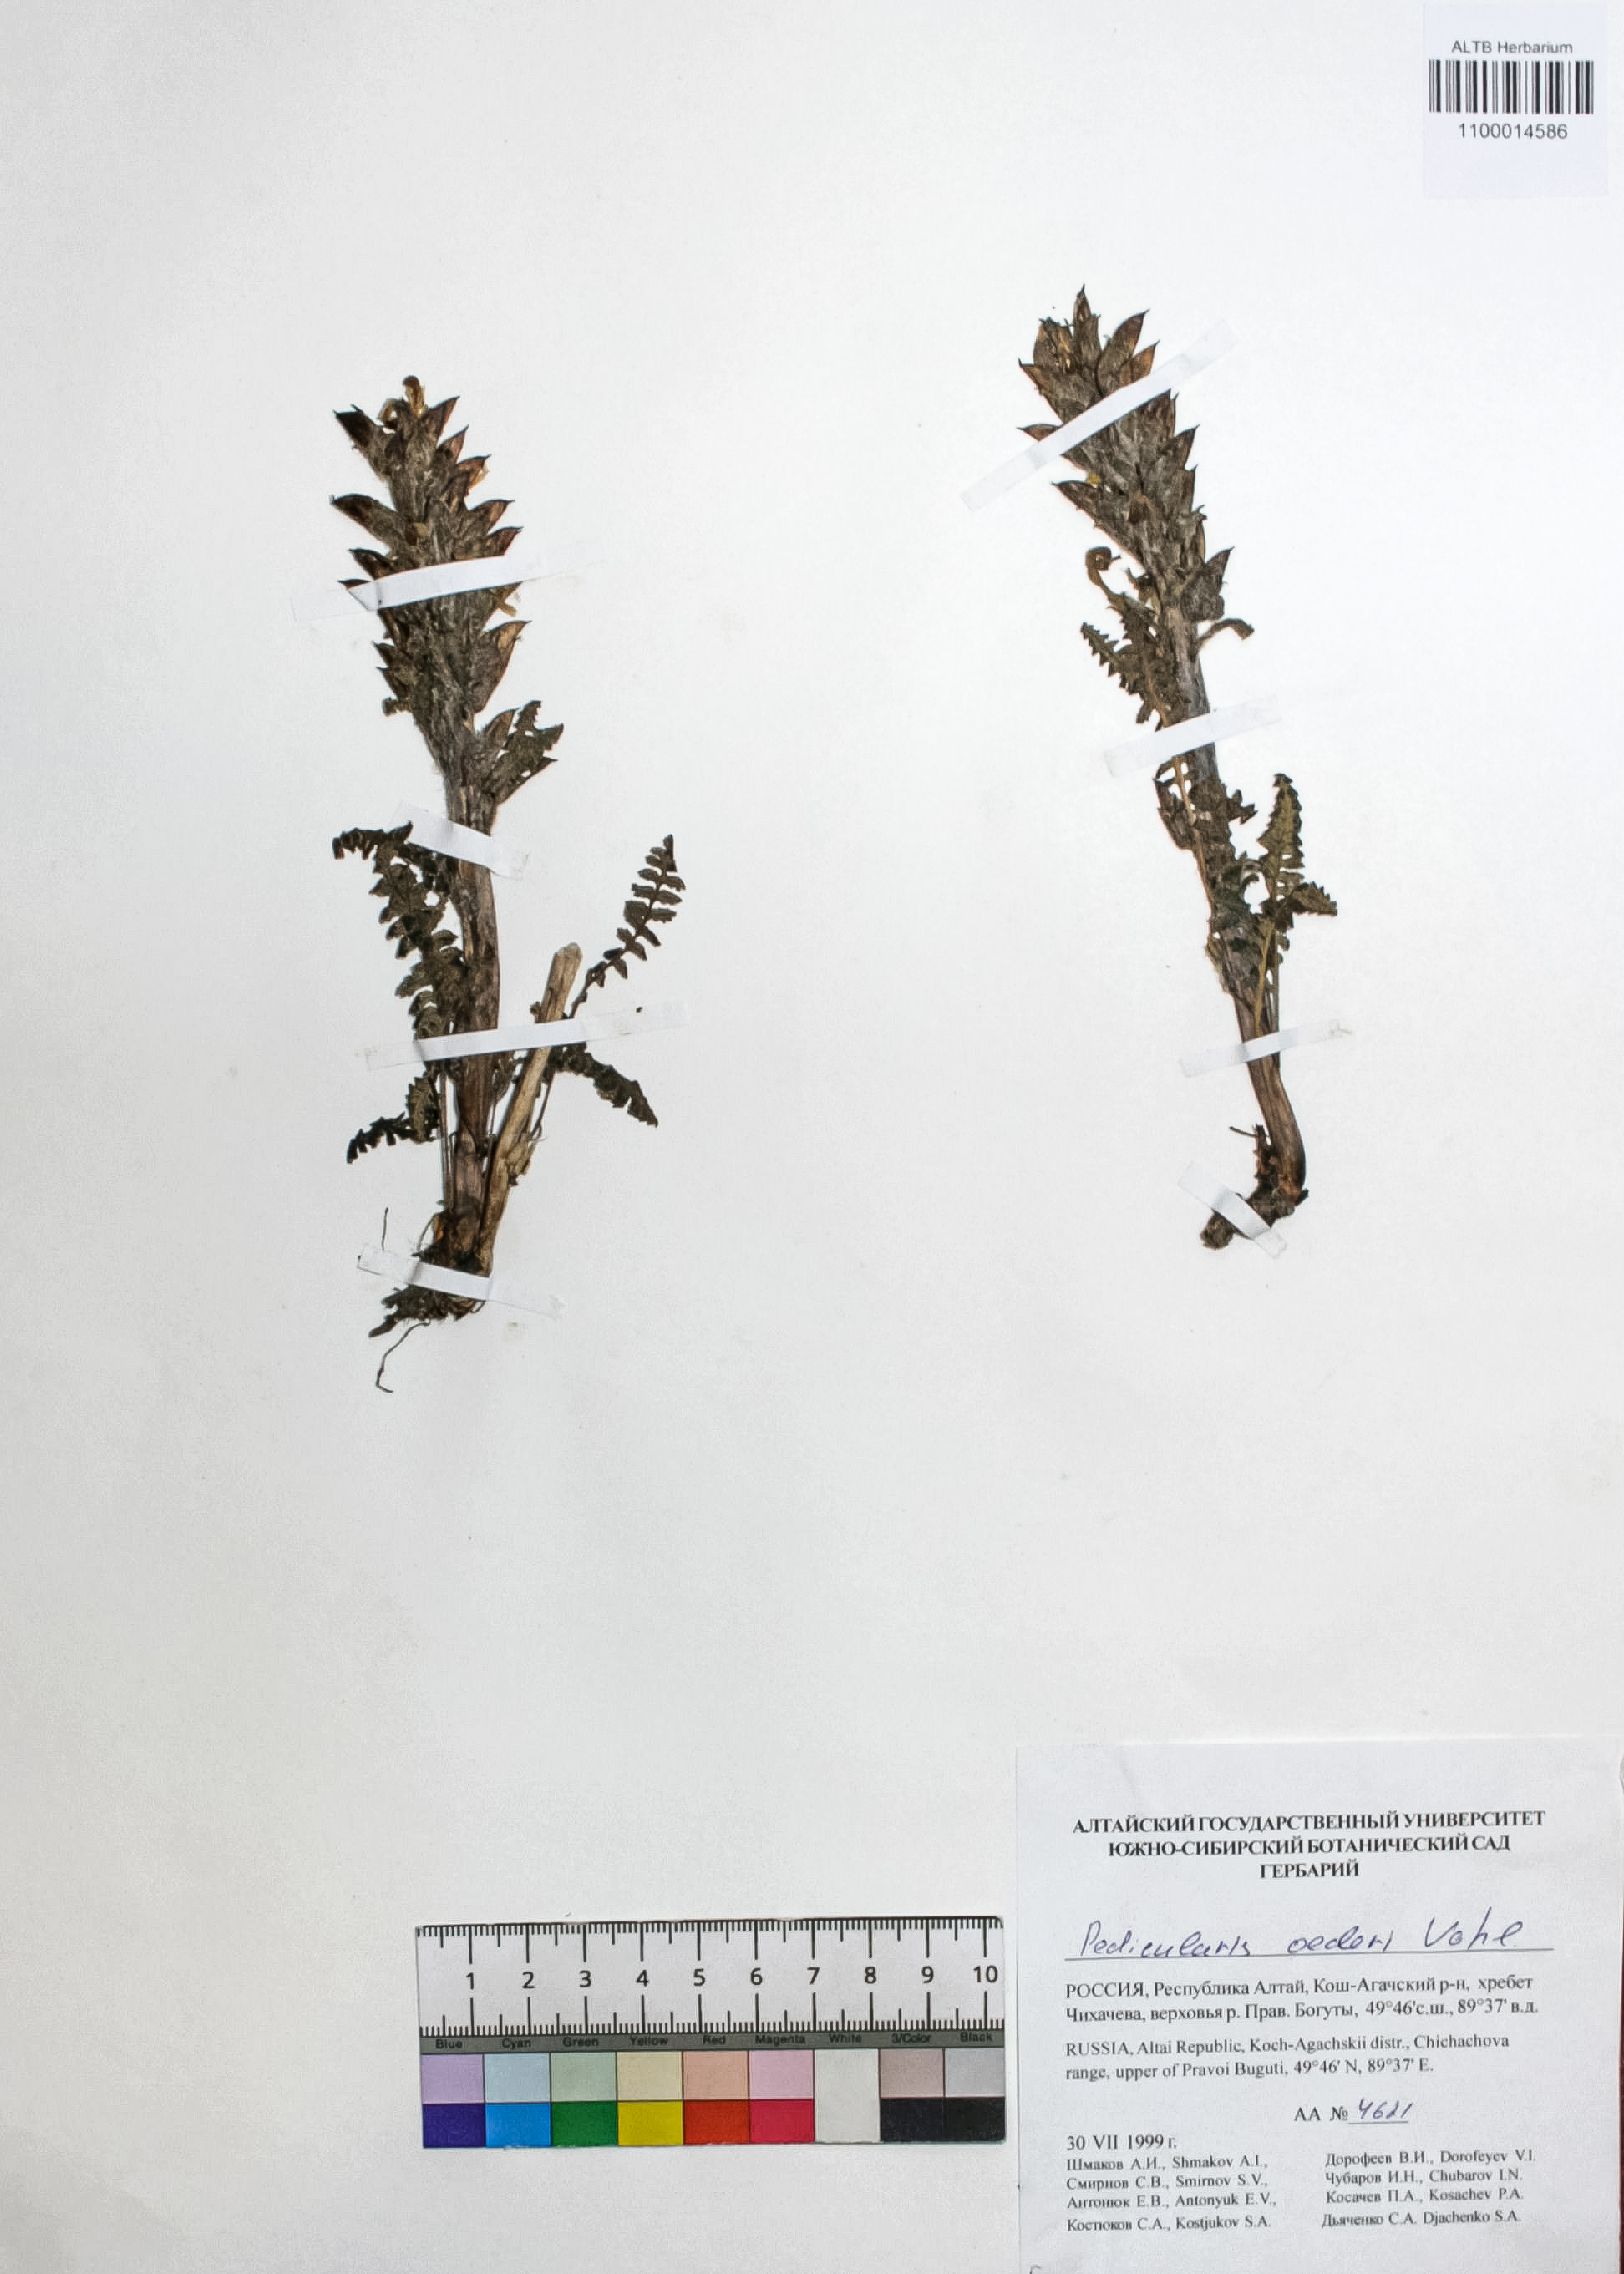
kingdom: Plantae
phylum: Tracheophyta
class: Magnoliopsida
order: Caryophyllales
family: Caryophyllaceae
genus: Silene
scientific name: Silene graminifolia
